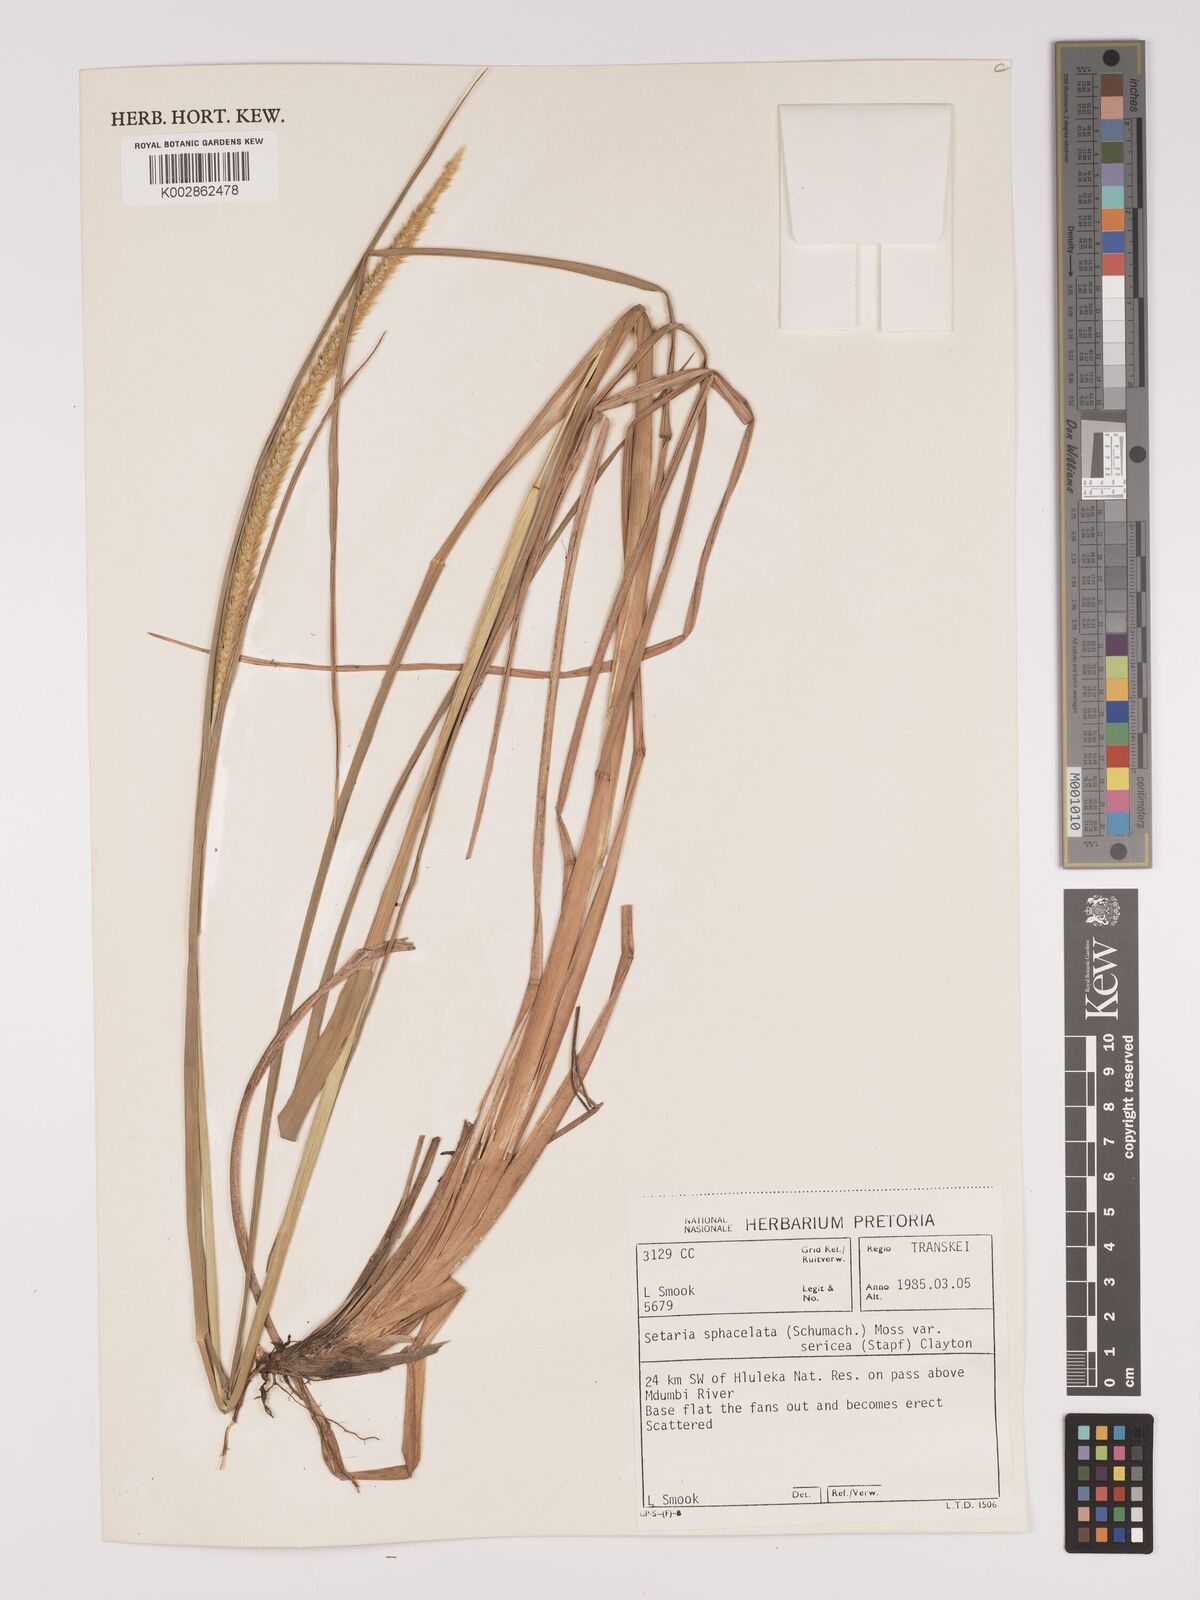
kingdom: Plantae
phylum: Tracheophyta
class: Liliopsida
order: Poales
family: Poaceae
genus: Setaria
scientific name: Setaria sphacelata
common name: African bristlegrass
